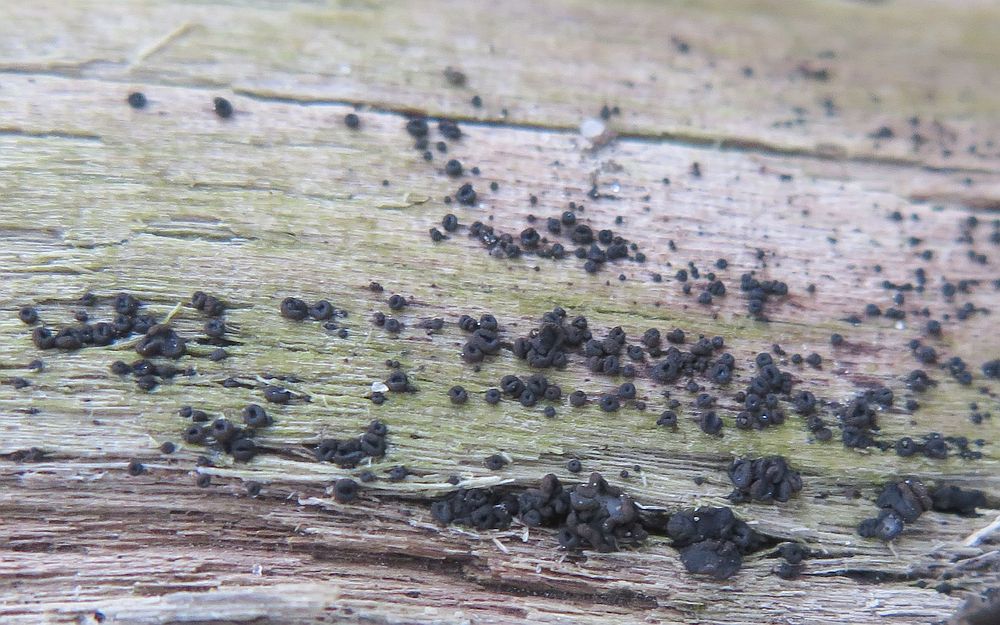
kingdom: Fungi
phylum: Ascomycota
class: Leotiomycetes
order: Helotiales
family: Mollisiaceae
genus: Mollisia
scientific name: Mollisia ligni
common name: ved-gråskive
